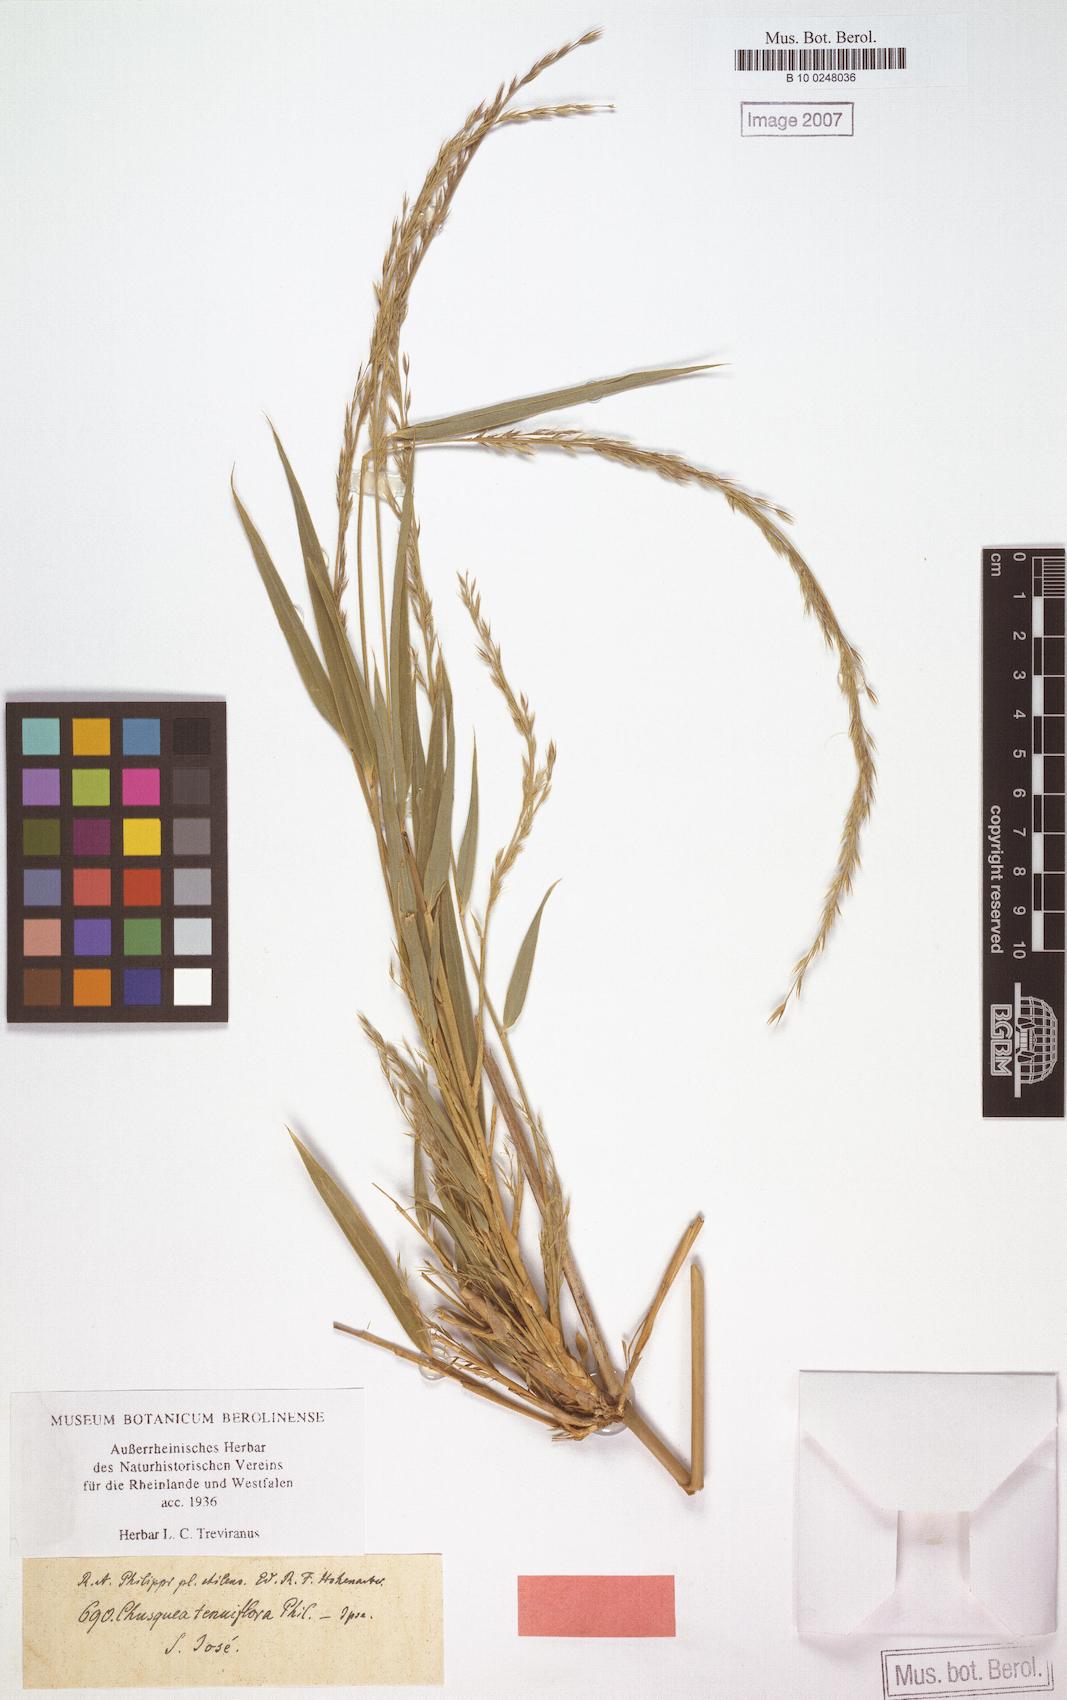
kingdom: Plantae
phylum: Tracheophyta
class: Liliopsida
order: Poales
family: Poaceae
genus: Chusquea
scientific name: Chusquea uliginosa
